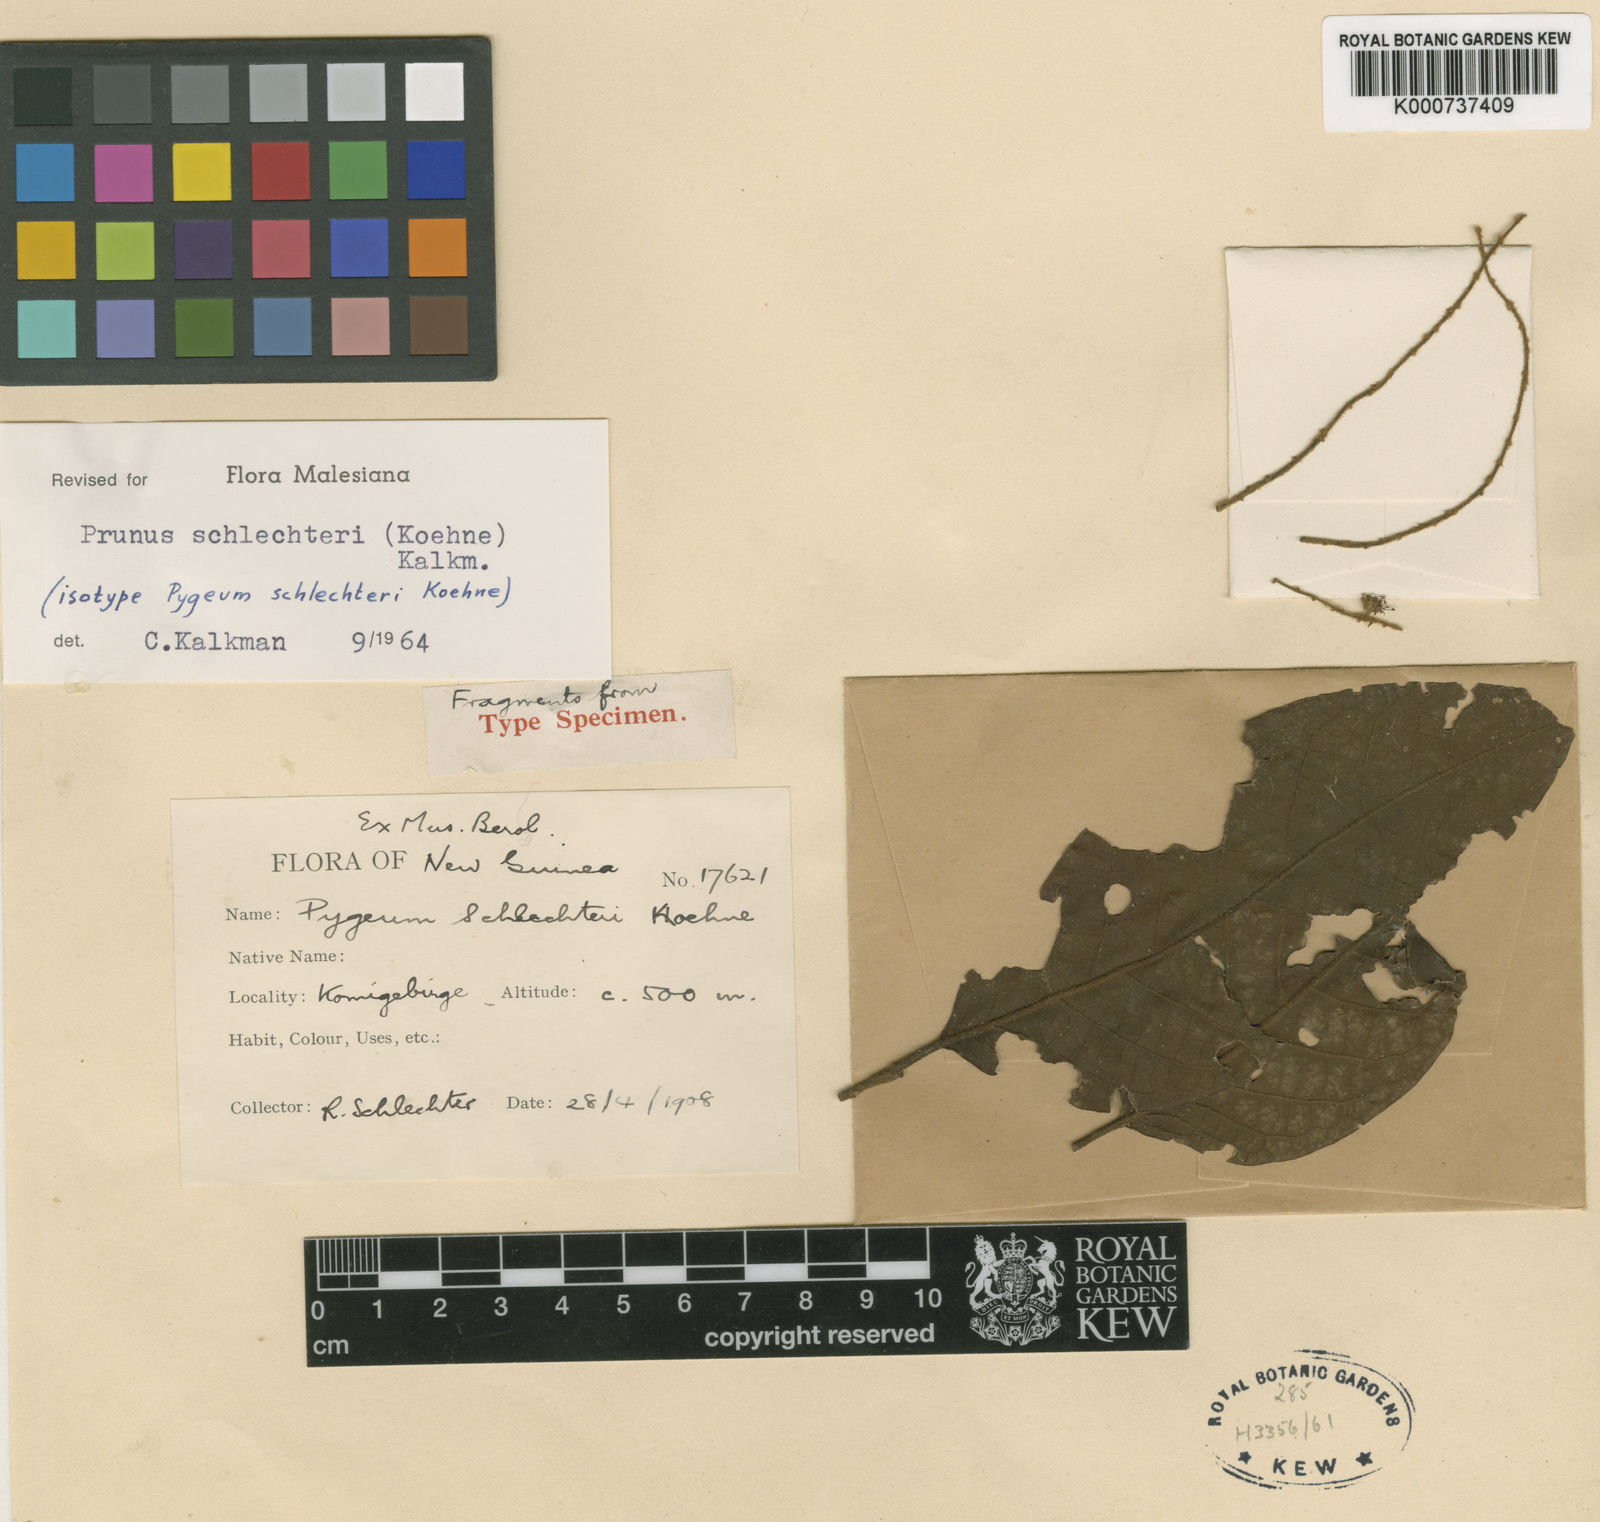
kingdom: Plantae
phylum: Tracheophyta
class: Magnoliopsida
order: Rosales
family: Rosaceae
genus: Prunus
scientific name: Prunus schlechteri
